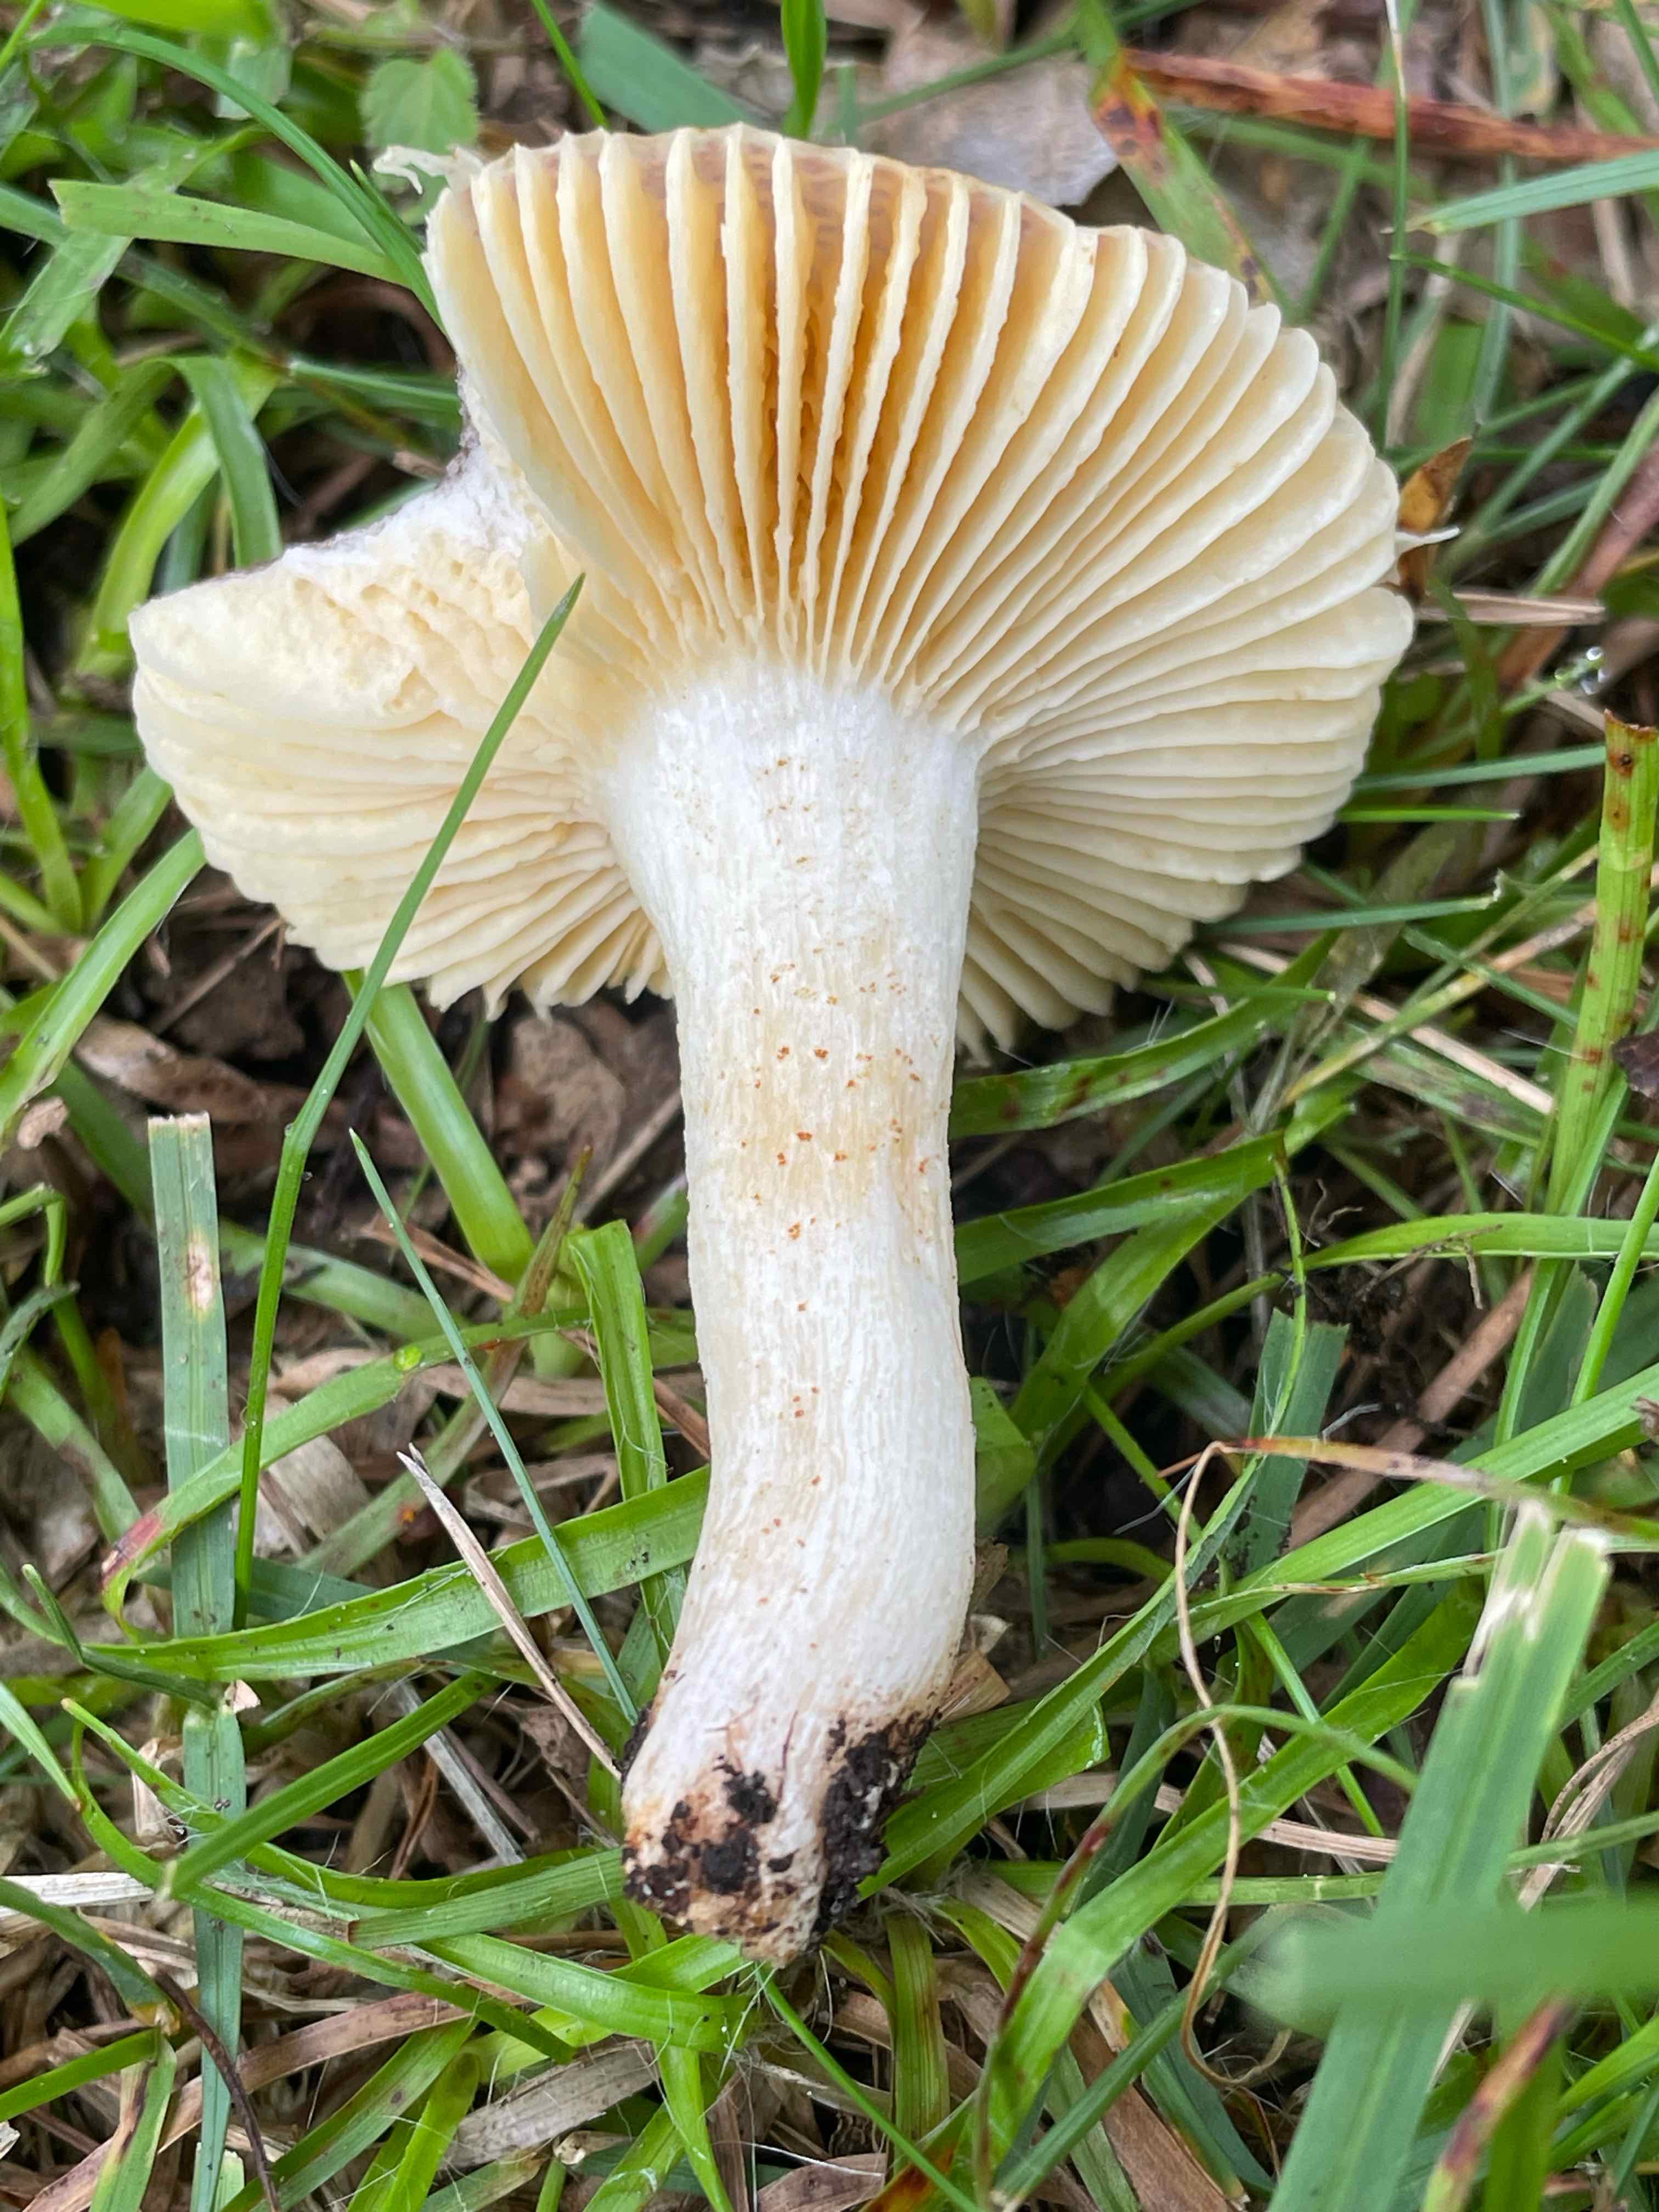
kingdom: Fungi
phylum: Basidiomycota
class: Agaricomycetes
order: Russulales
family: Russulaceae
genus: Russula
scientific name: Russula odorata
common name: duft-skørhat
